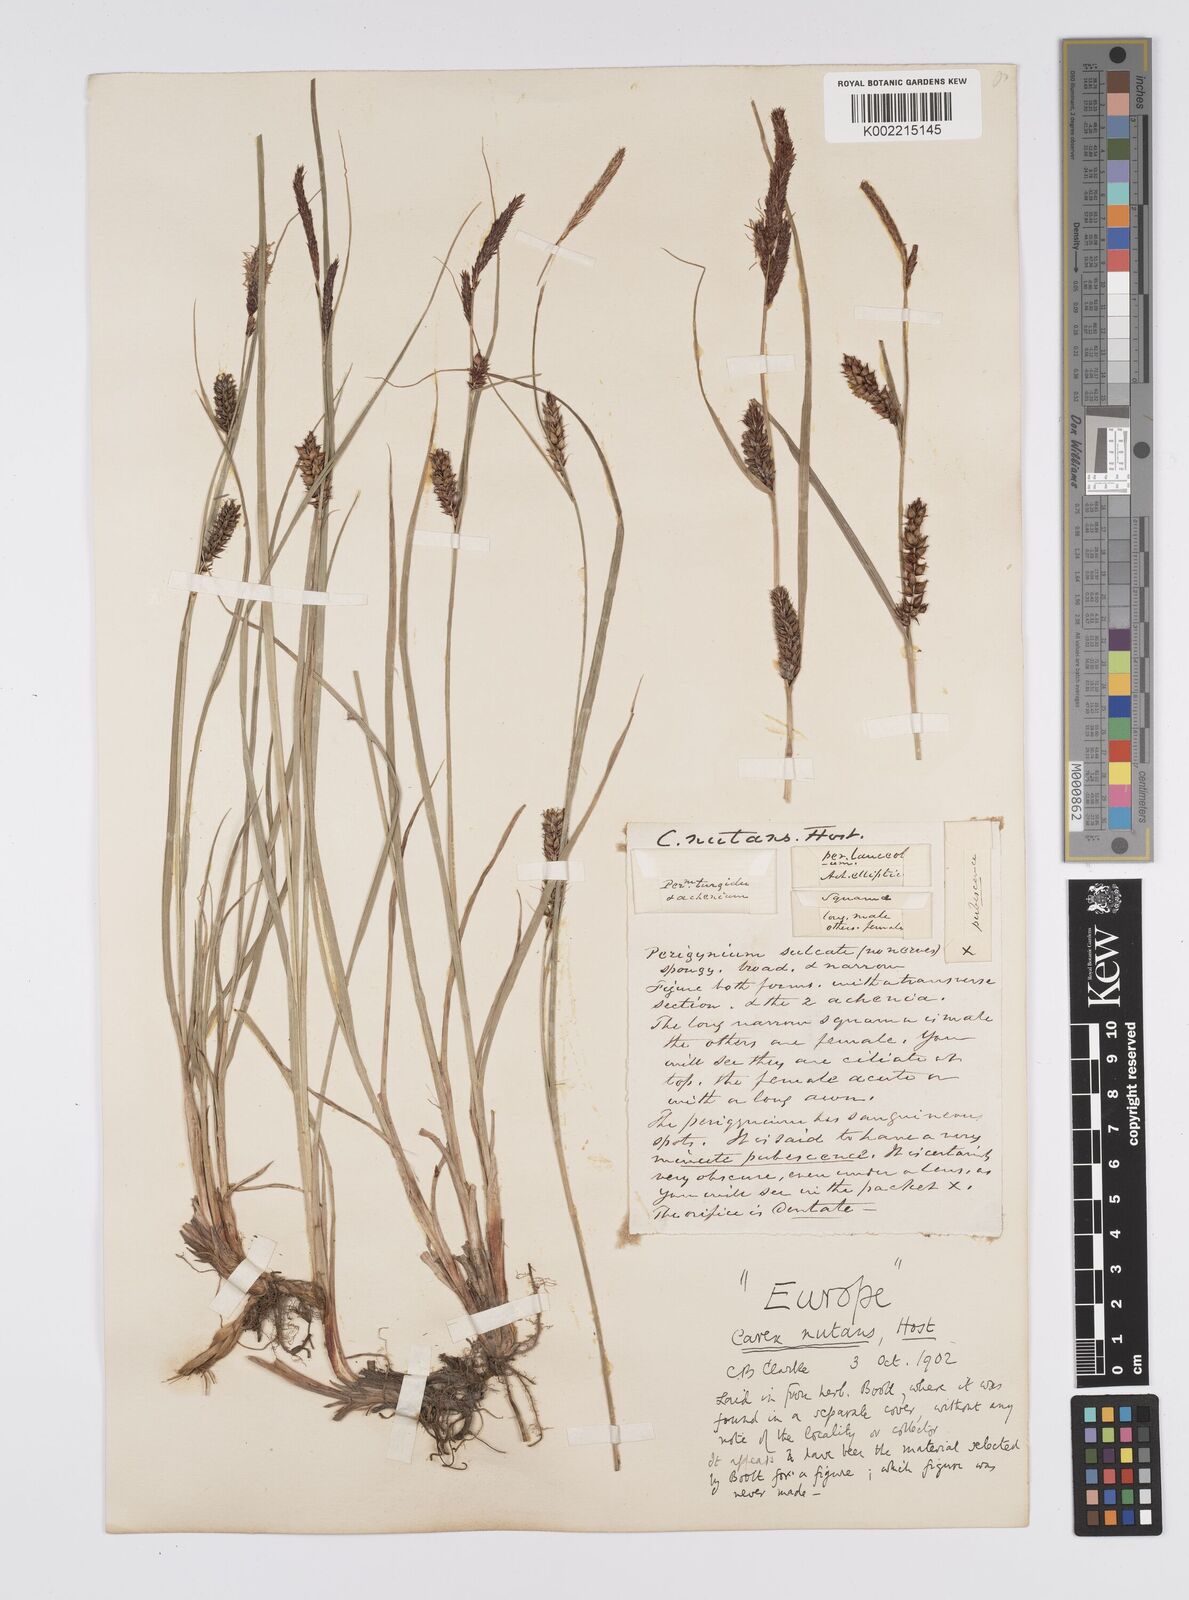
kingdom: Plantae
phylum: Tracheophyta
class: Liliopsida
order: Poales
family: Cyperaceae
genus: Carex
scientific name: Carex melanostachya
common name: Black-spiked sedge
